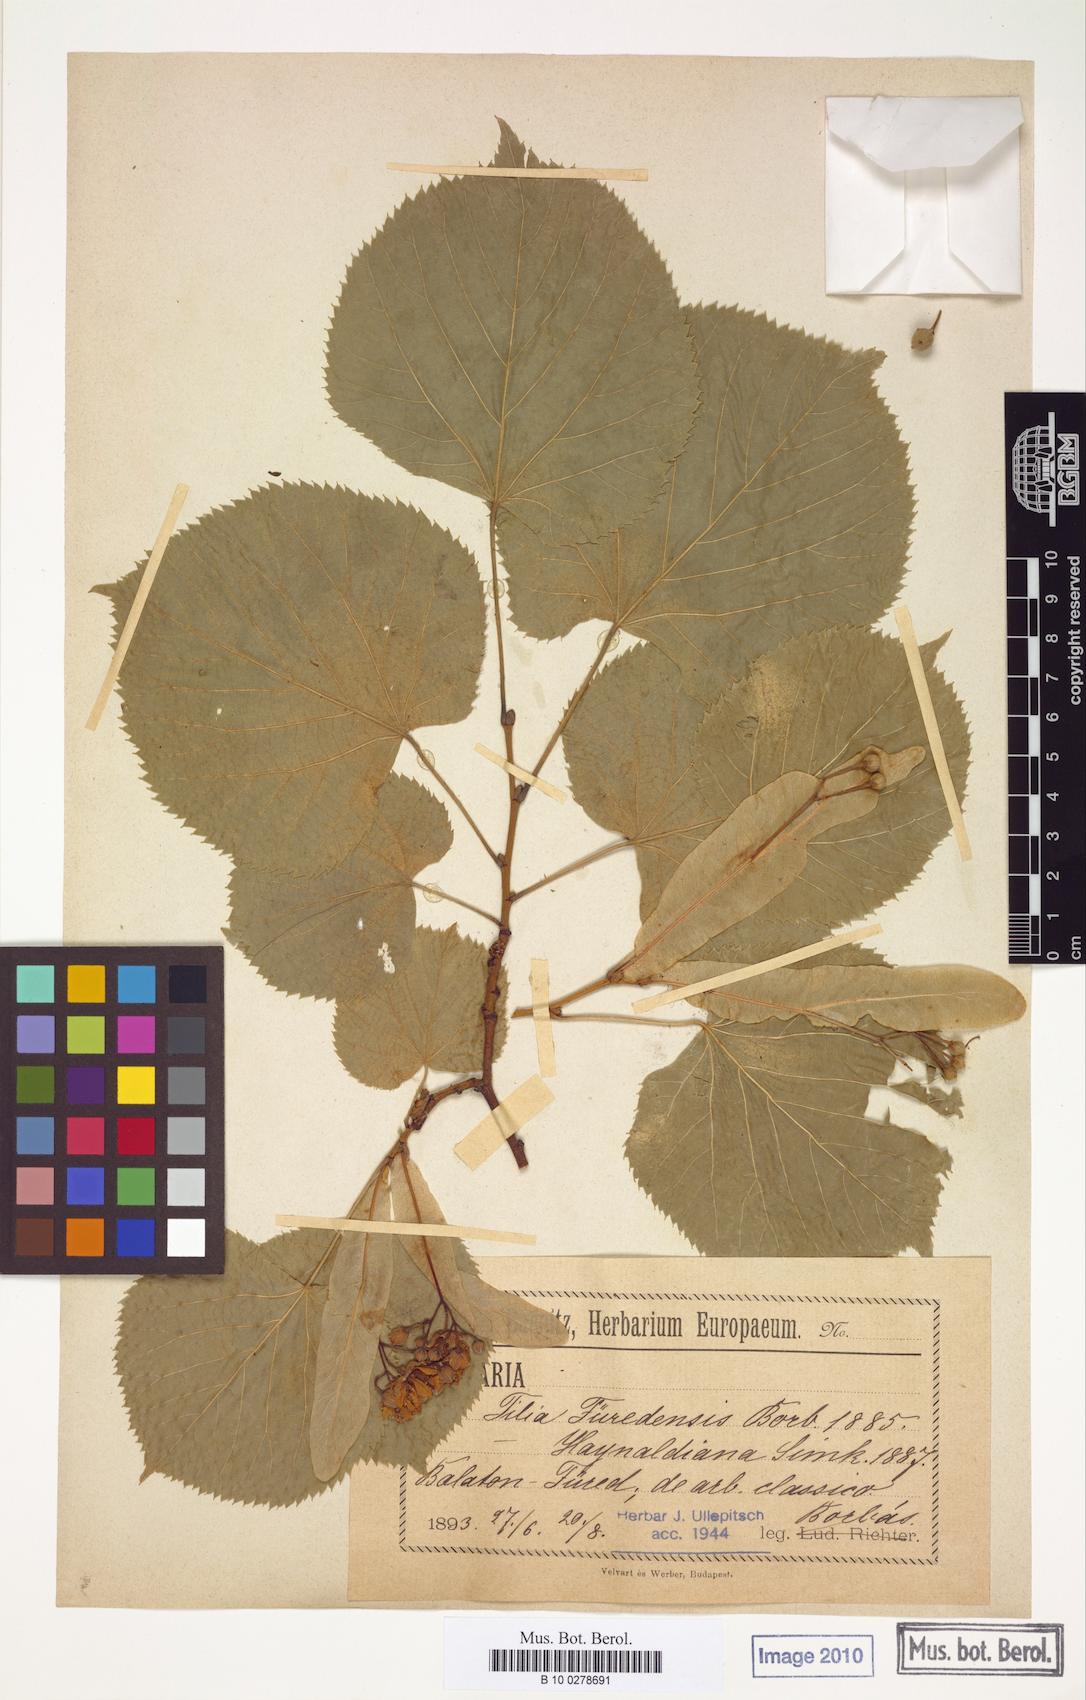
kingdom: Plantae
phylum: Tracheophyta
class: Magnoliopsida
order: Malvales
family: Malvaceae
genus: Tilia
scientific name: Tilia furedensis
